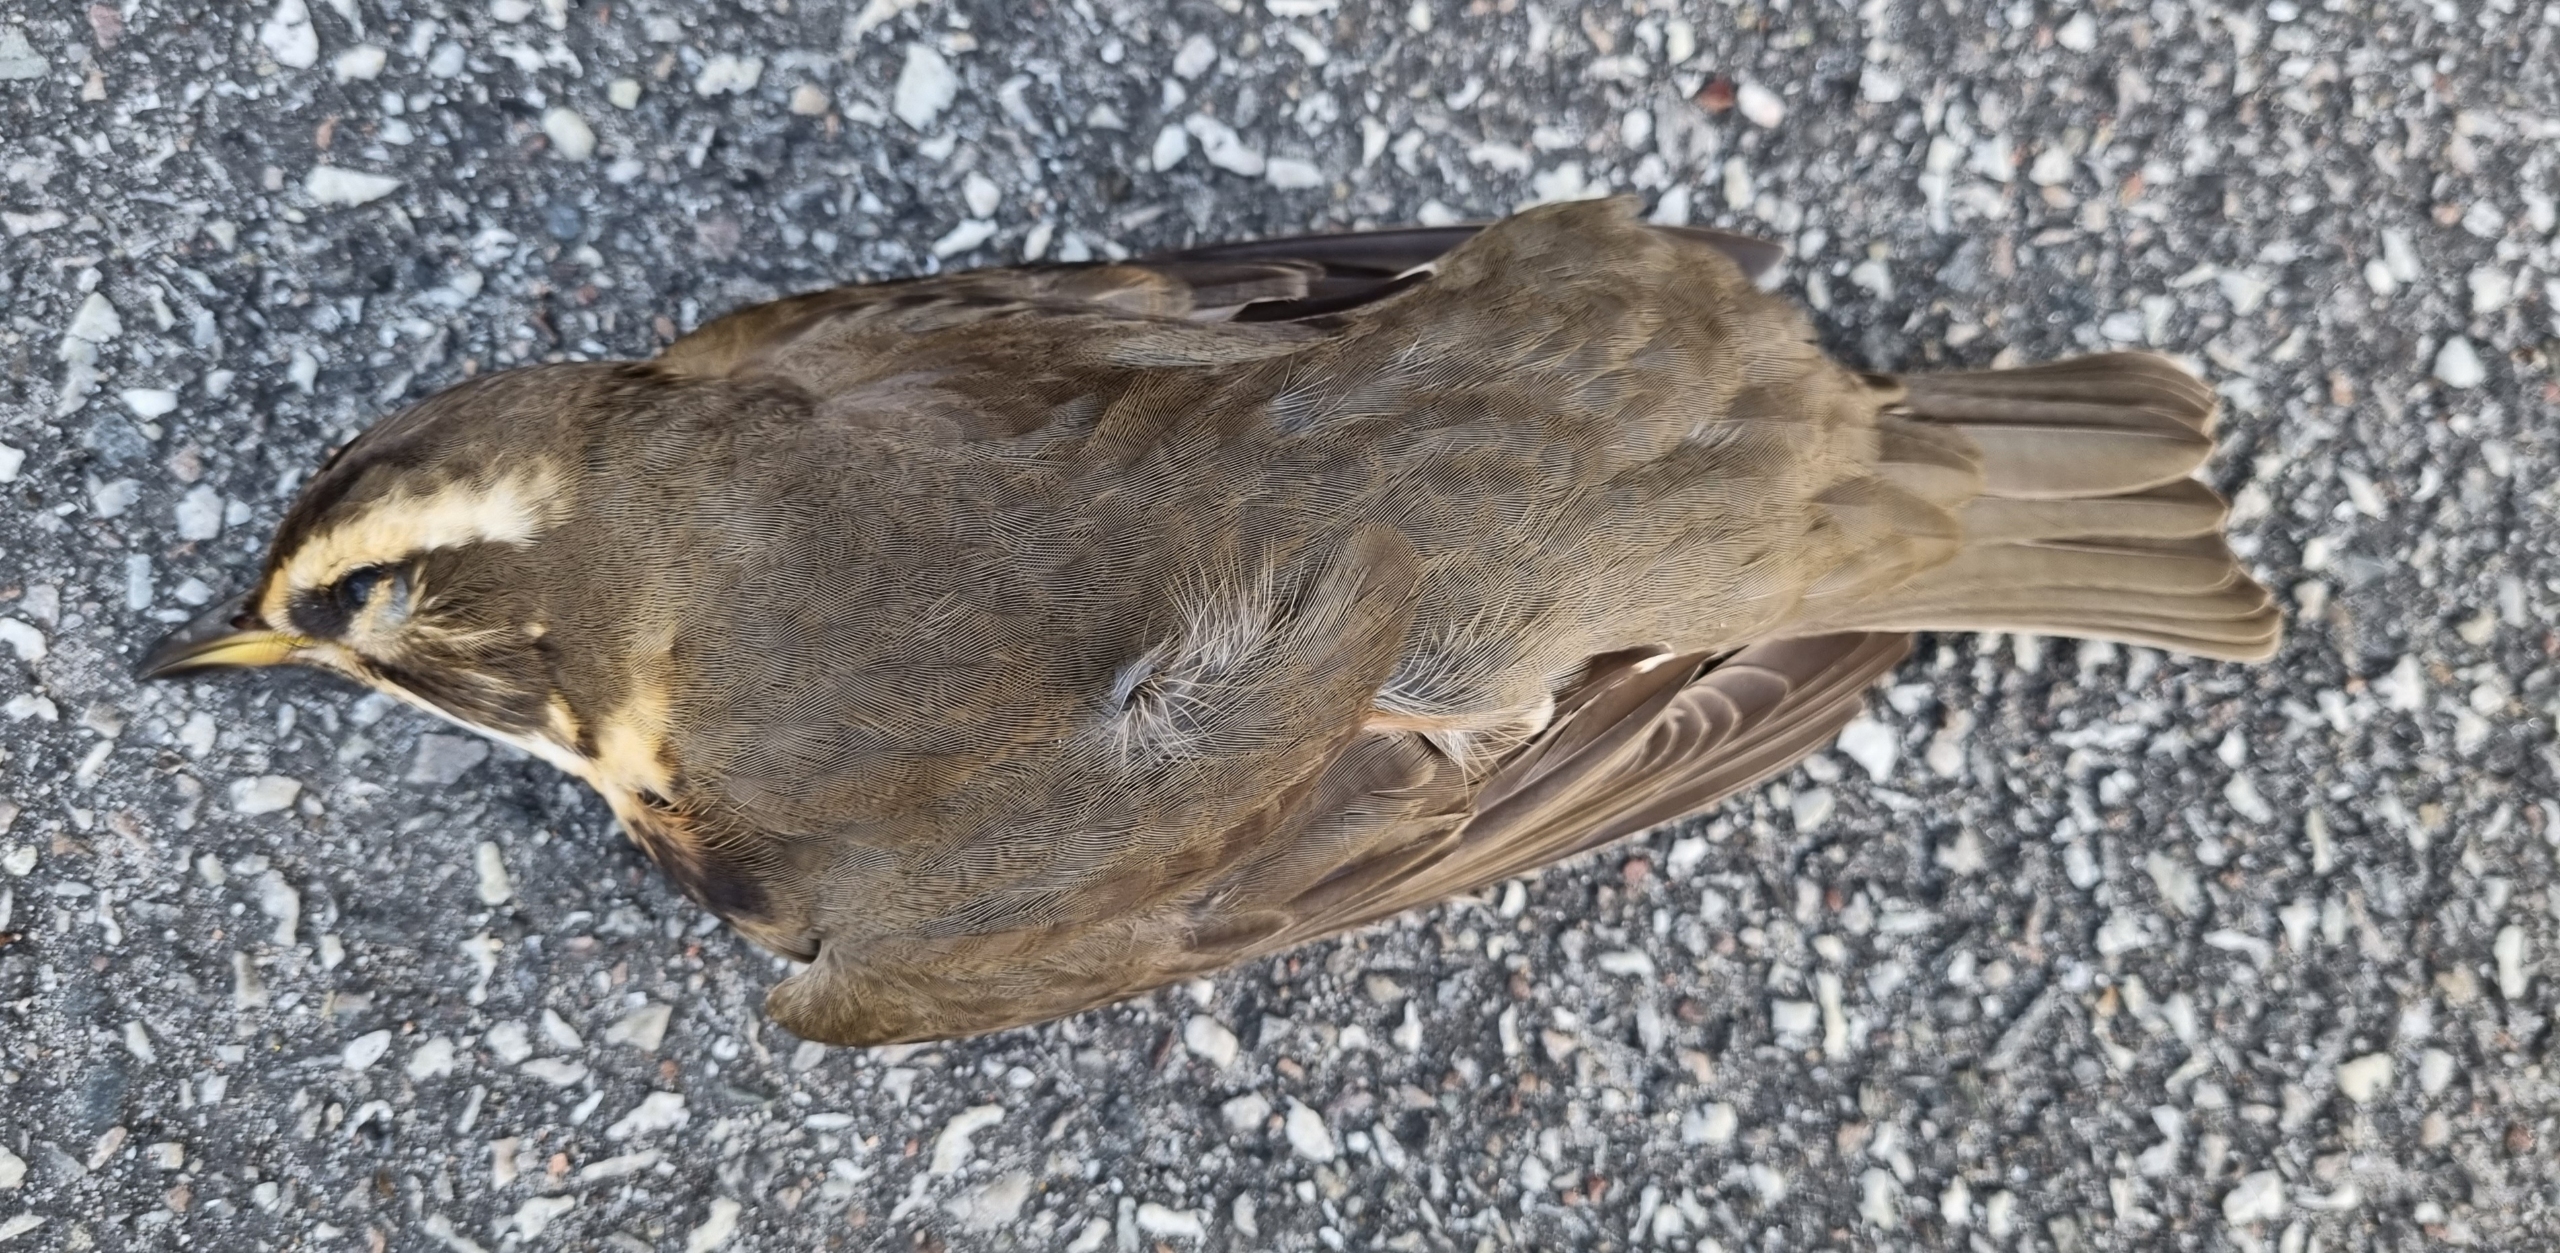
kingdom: Animalia
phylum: Chordata
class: Aves
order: Passeriformes
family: Turdidae
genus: Turdus
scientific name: Turdus iliacus
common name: Vindrossel
